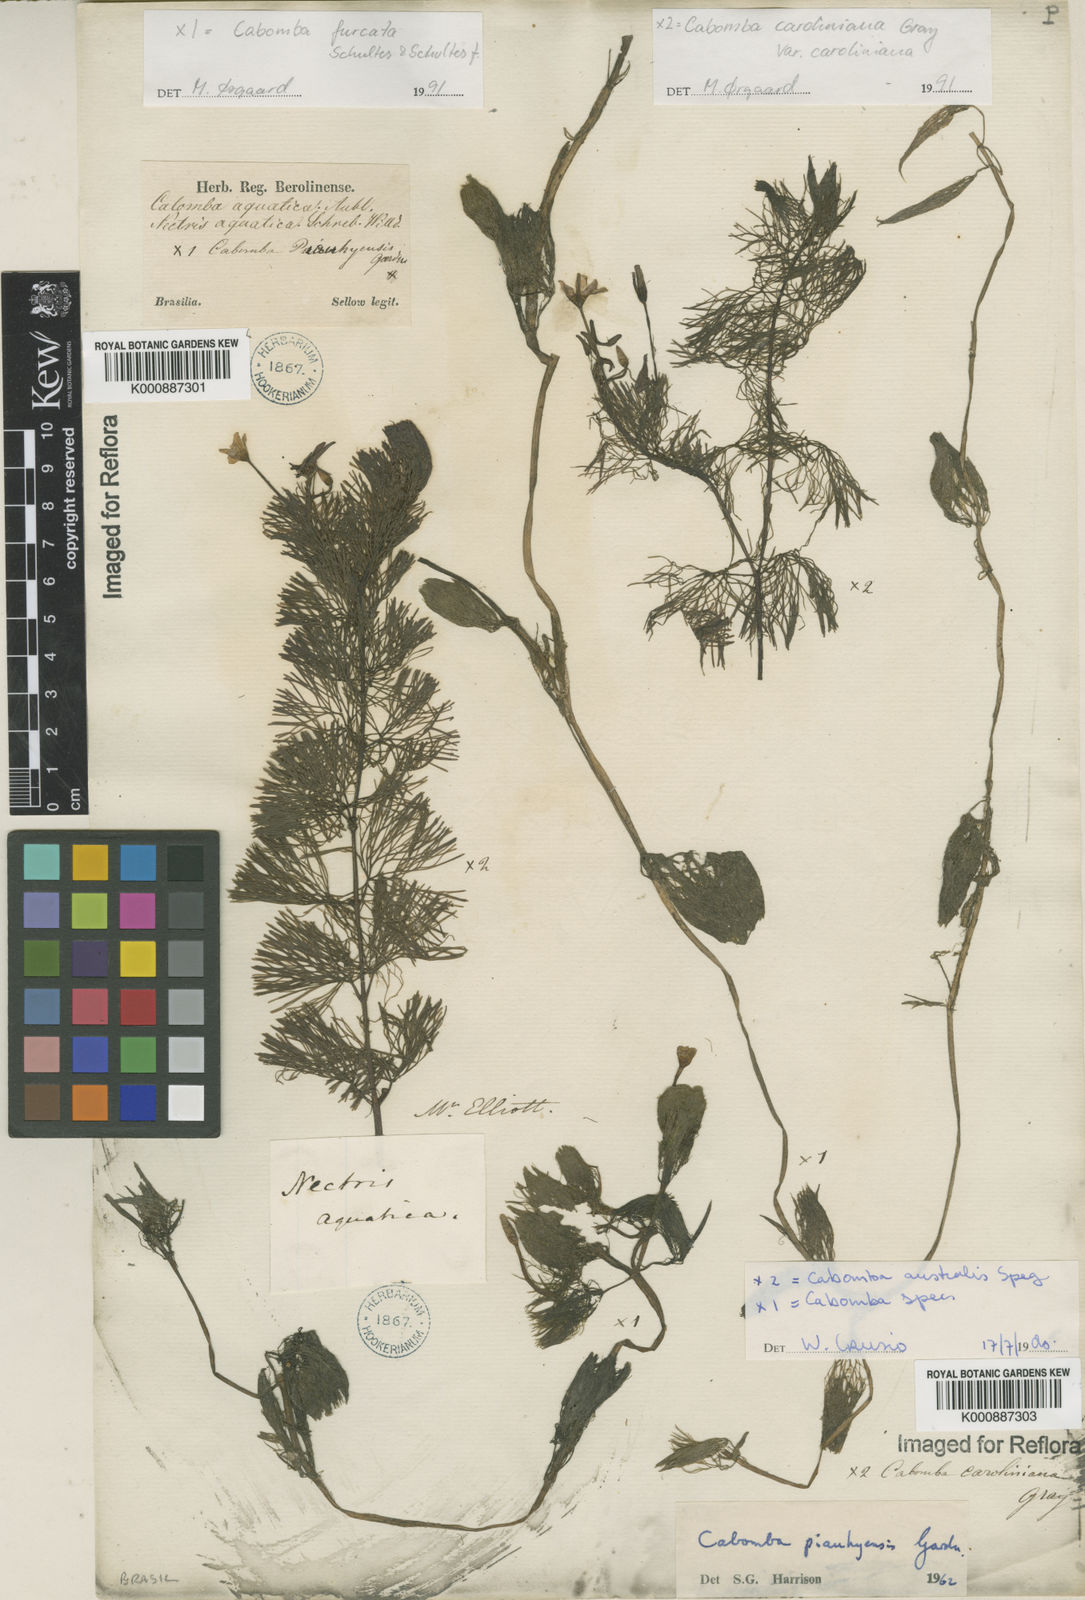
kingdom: Plantae
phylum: Tracheophyta
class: Magnoliopsida
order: Nymphaeales
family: Cabombaceae
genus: Cabomba
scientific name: Cabomba furcata
